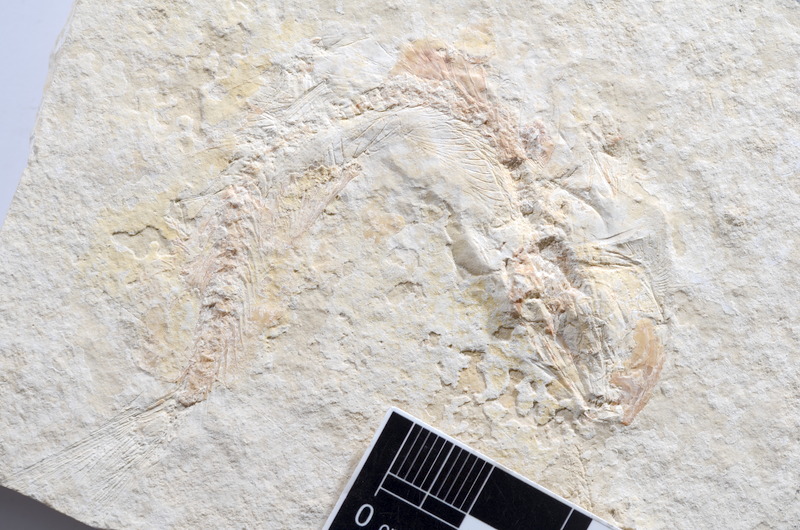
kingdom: Animalia
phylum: Chordata
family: Ascalaboidae
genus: Tharsis
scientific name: Tharsis dubius
